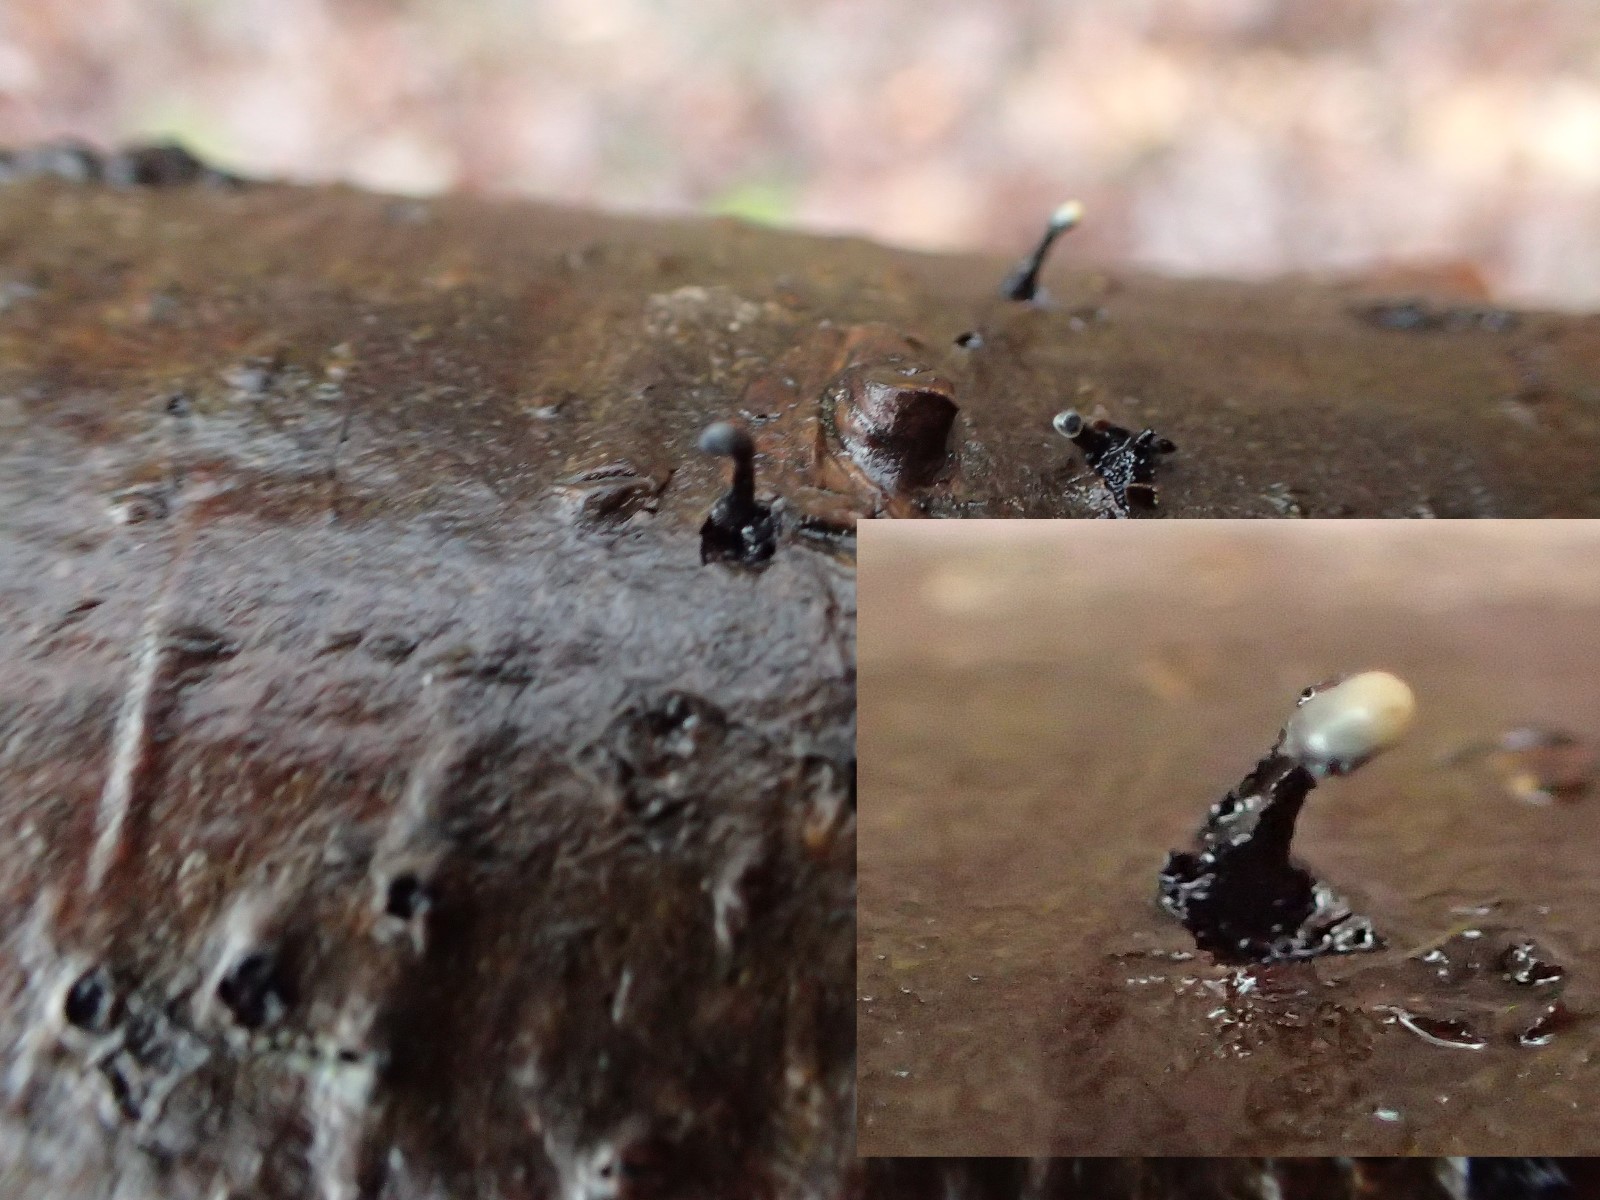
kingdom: Fungi
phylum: Ascomycota
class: Leotiomycetes
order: Helotiales
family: Bulgariaceae
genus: Holwaya
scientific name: Holwaya mucida
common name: lindeskive
